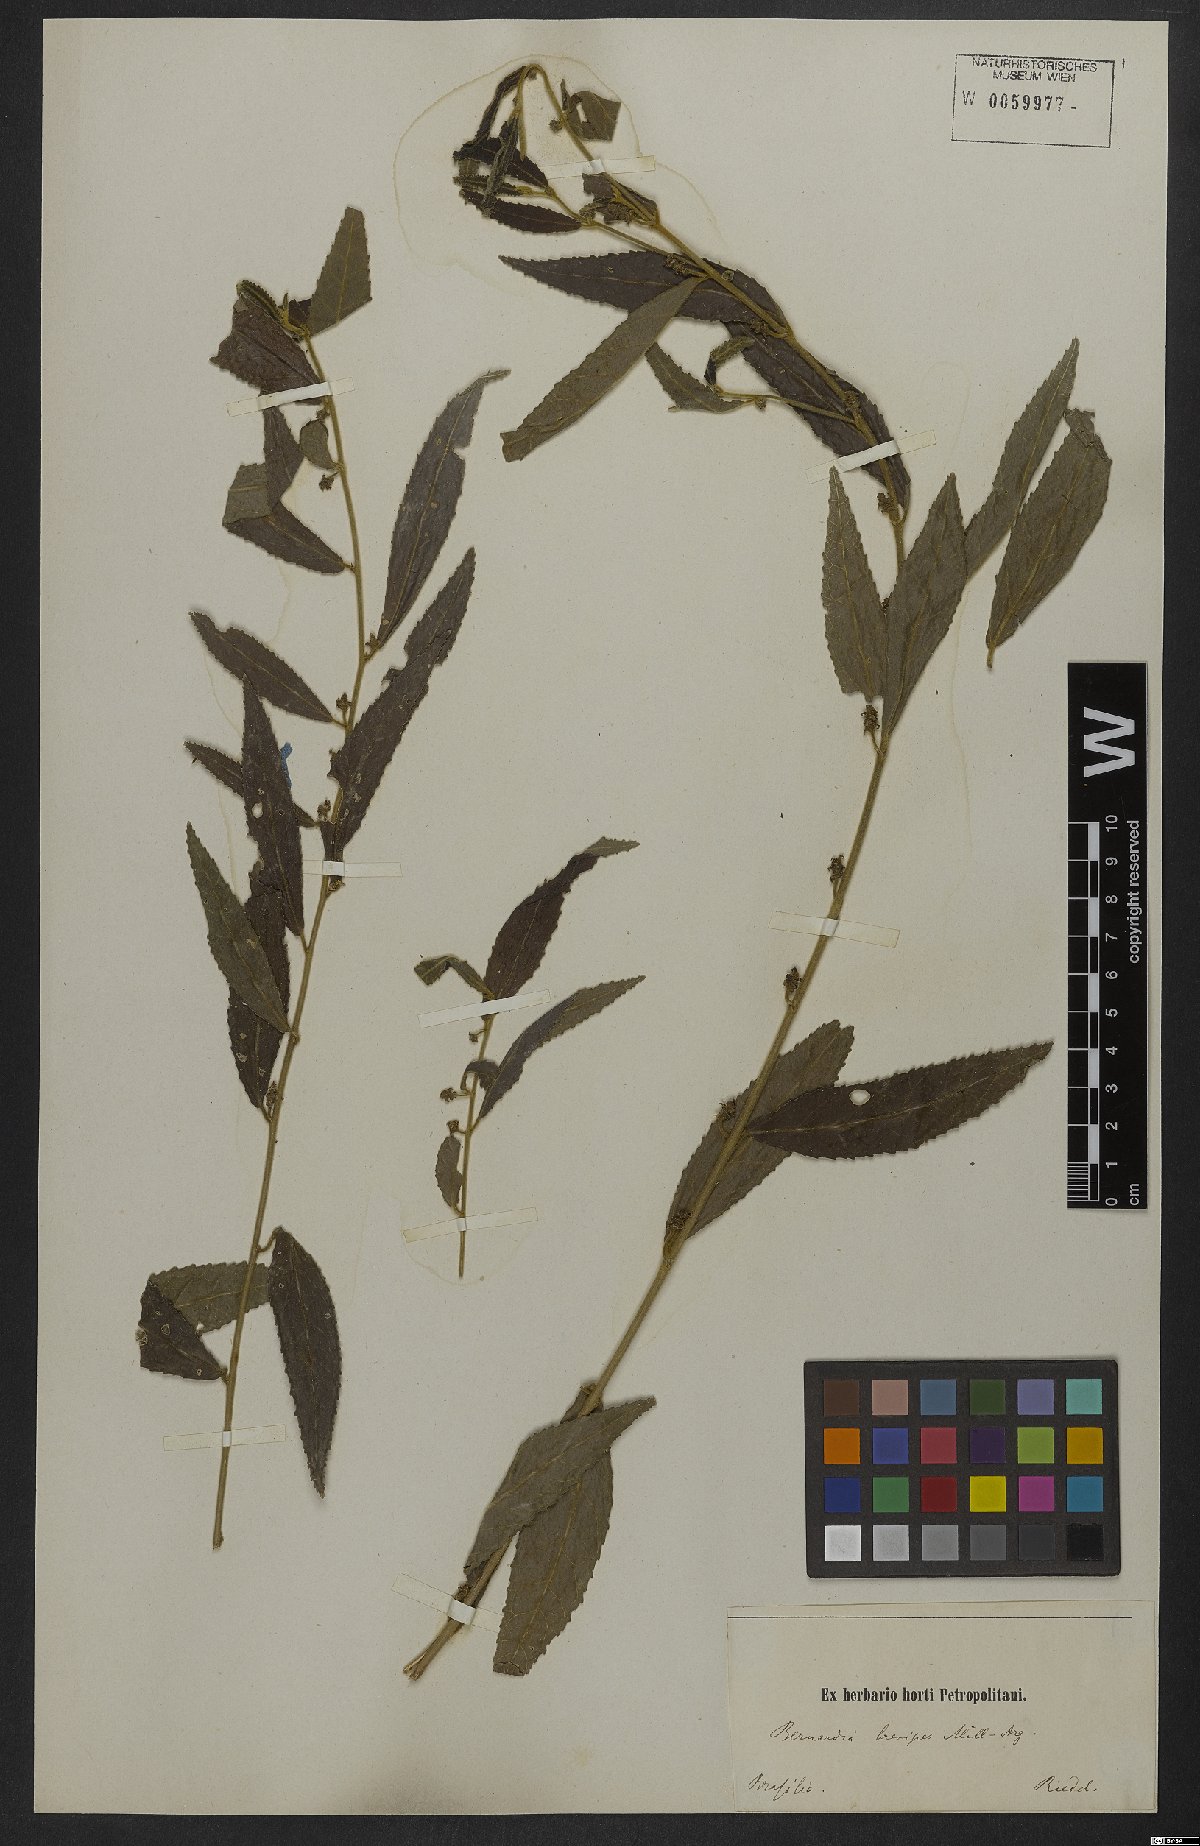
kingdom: Plantae
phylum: Tracheophyta
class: Magnoliopsida
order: Malpighiales
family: Euphorbiaceae
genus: Bernardia
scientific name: Bernardia brevipes
